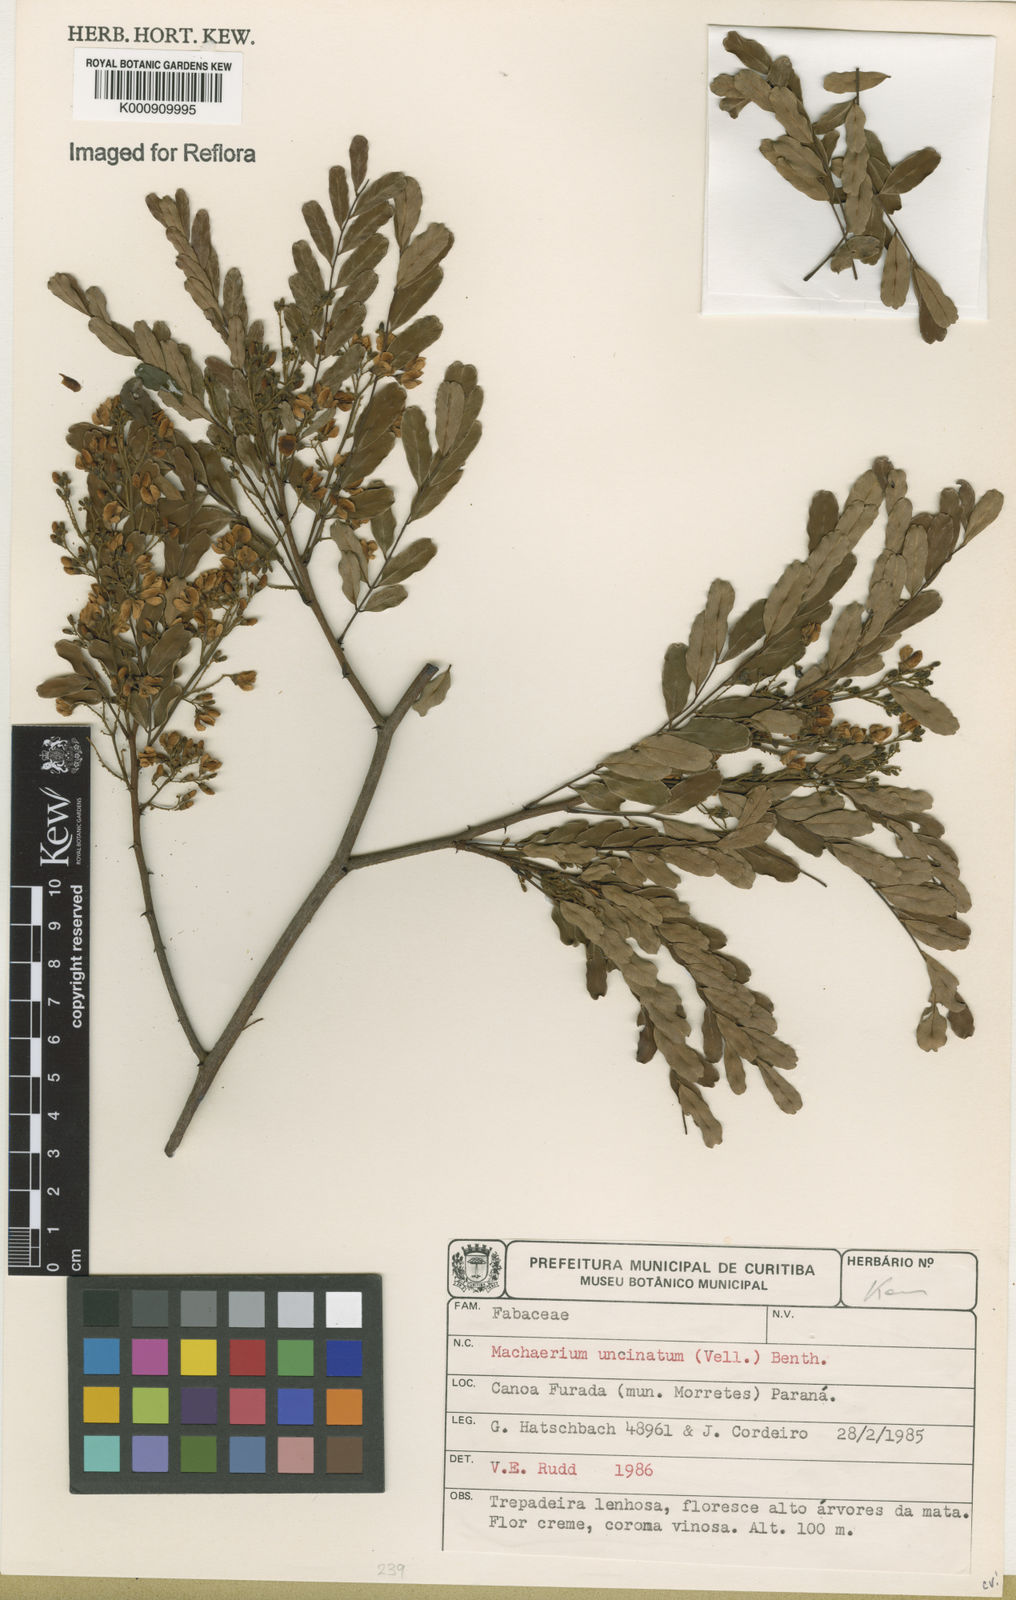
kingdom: Plantae
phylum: Tracheophyta
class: Magnoliopsida
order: Fabales
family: Fabaceae
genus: Machaerium
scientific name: Machaerium uncinatum
